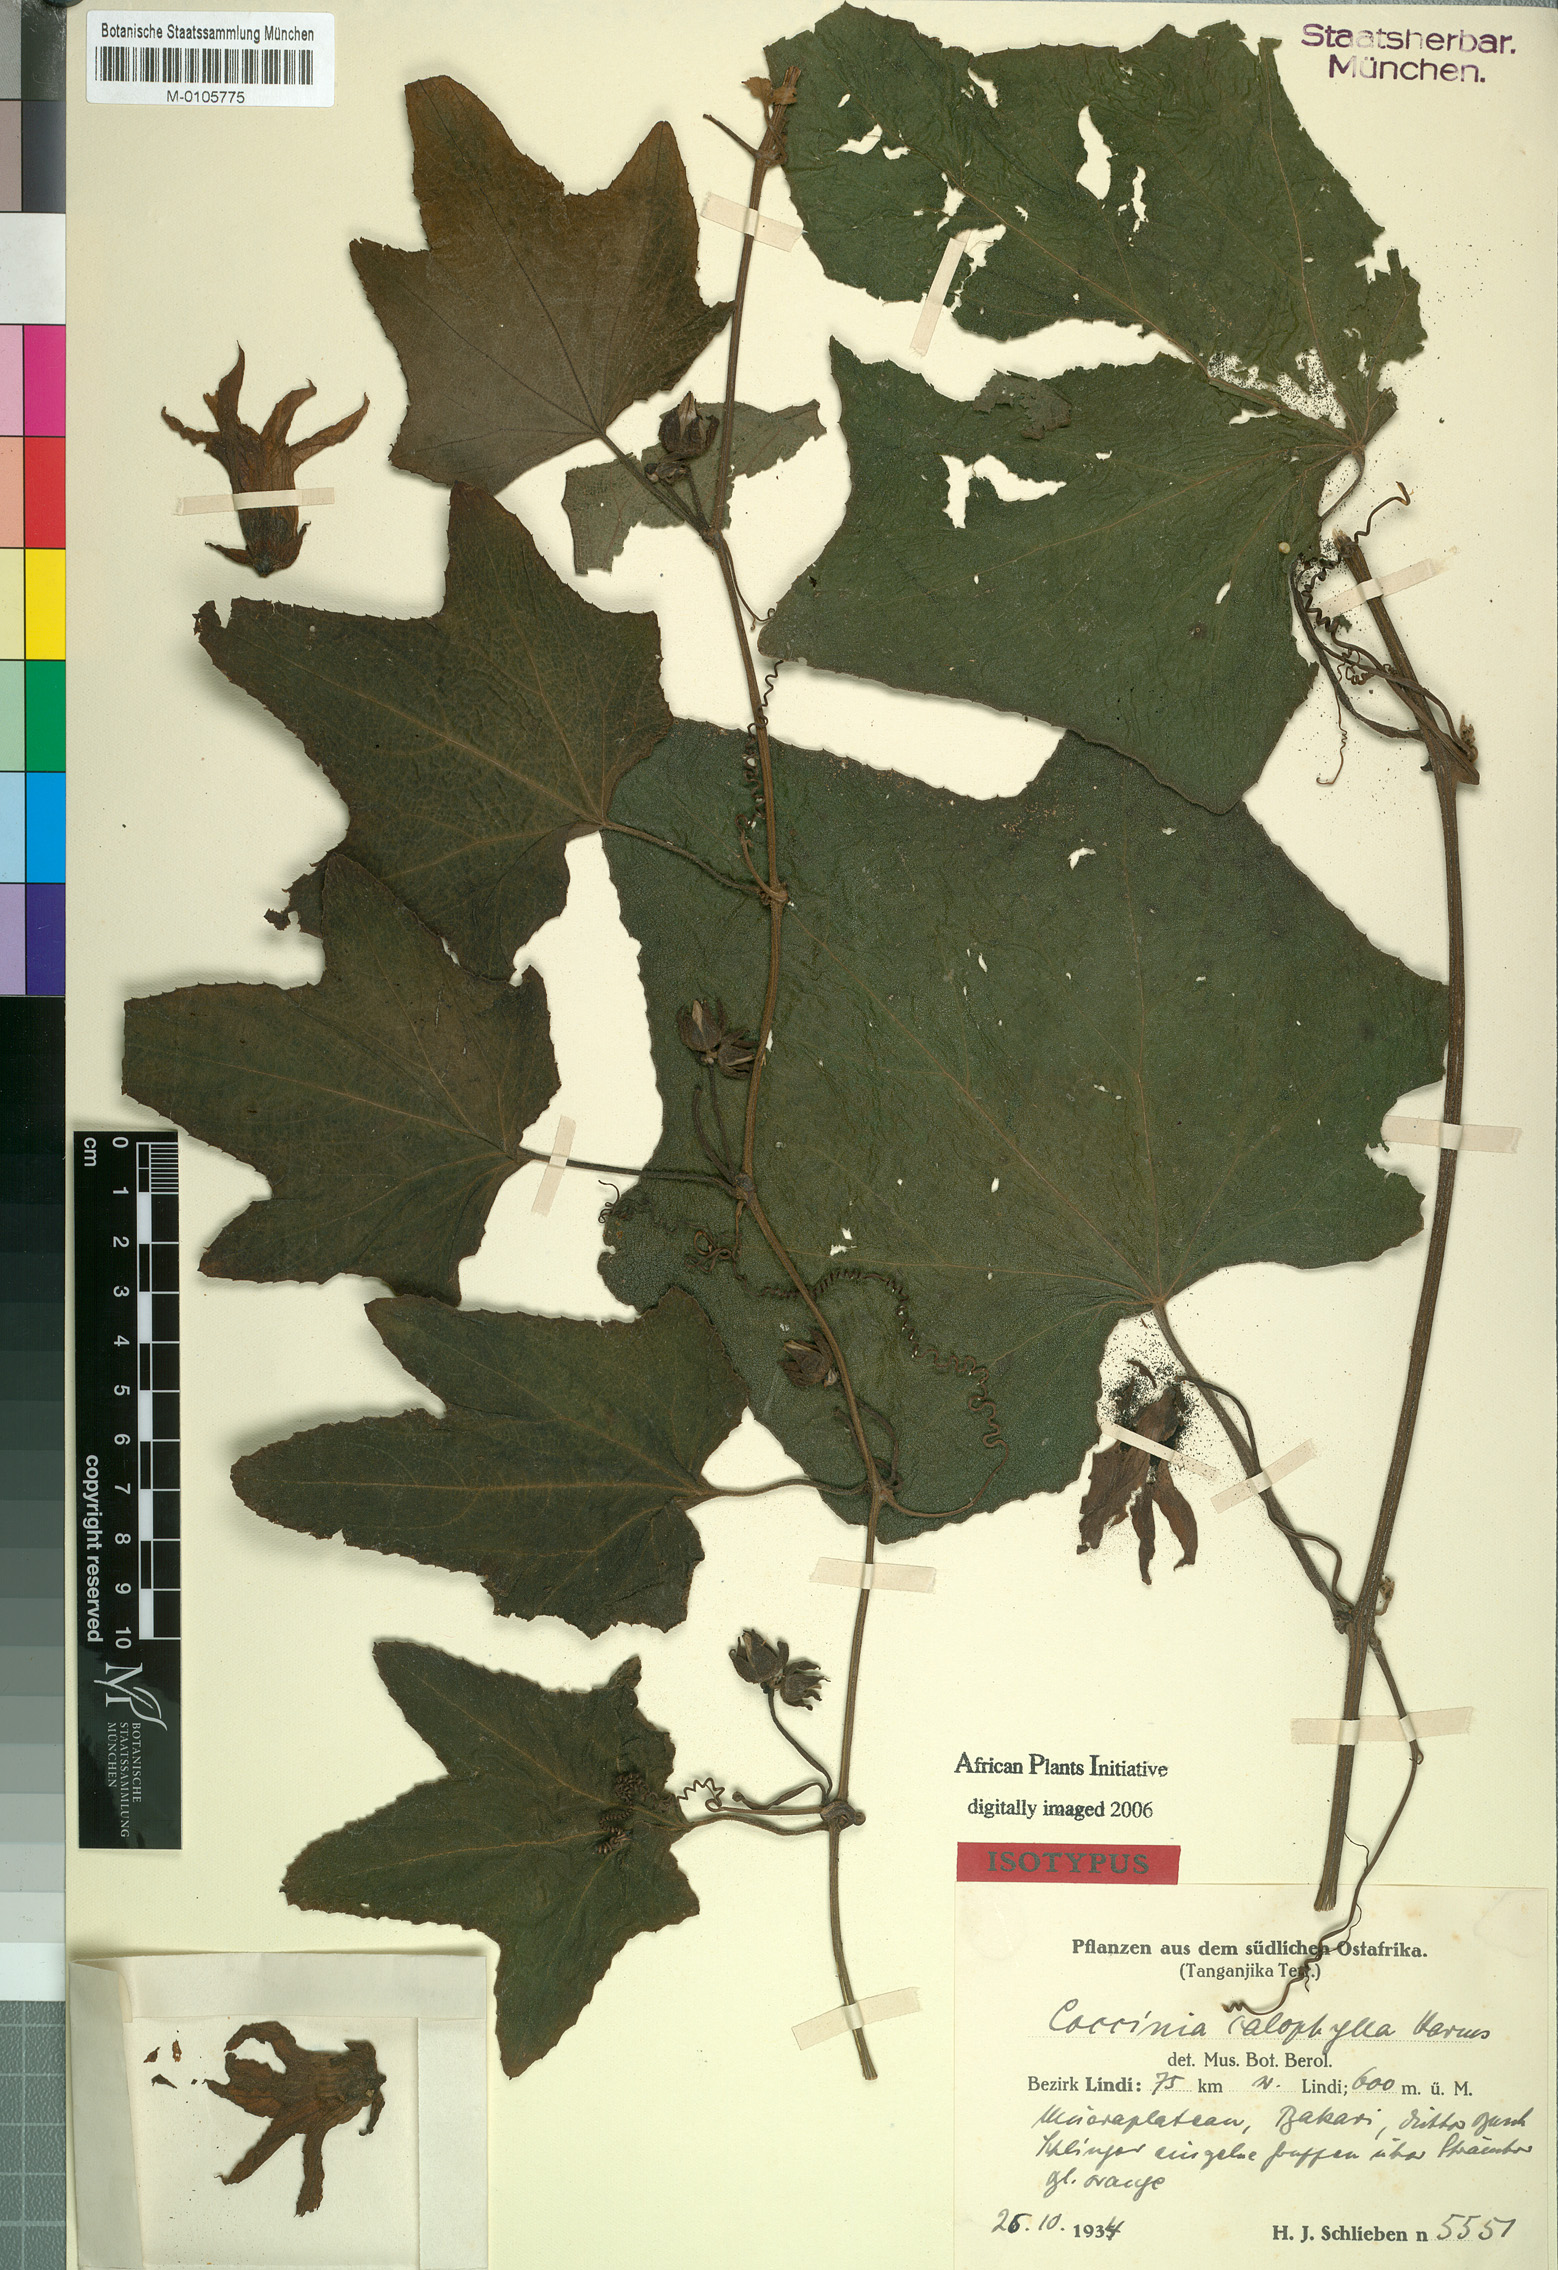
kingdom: Plantae
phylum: Tracheophyta
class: Magnoliopsida
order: Cucurbitales
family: Cucurbitaceae
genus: Coccinia
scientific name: Coccinia schliebenii
